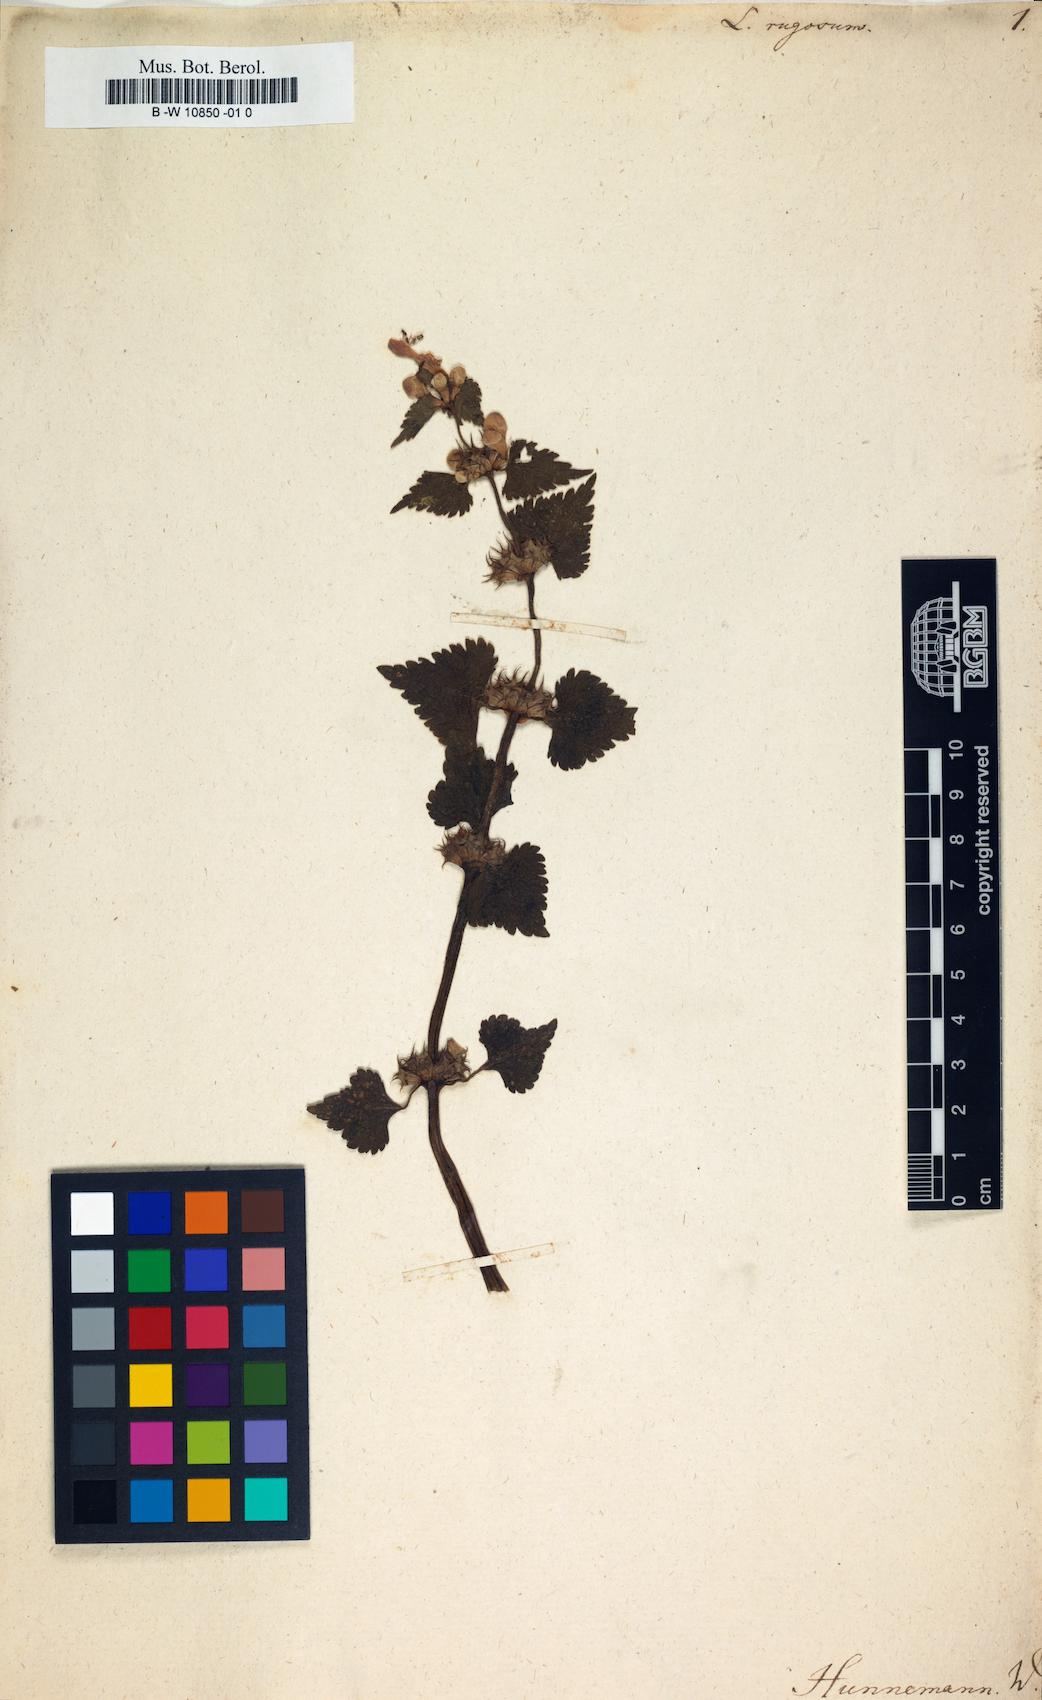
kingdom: Plantae
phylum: Tracheophyta
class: Magnoliopsida
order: Lamiales
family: Lamiaceae
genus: Ballota
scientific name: Ballota saxatilis
